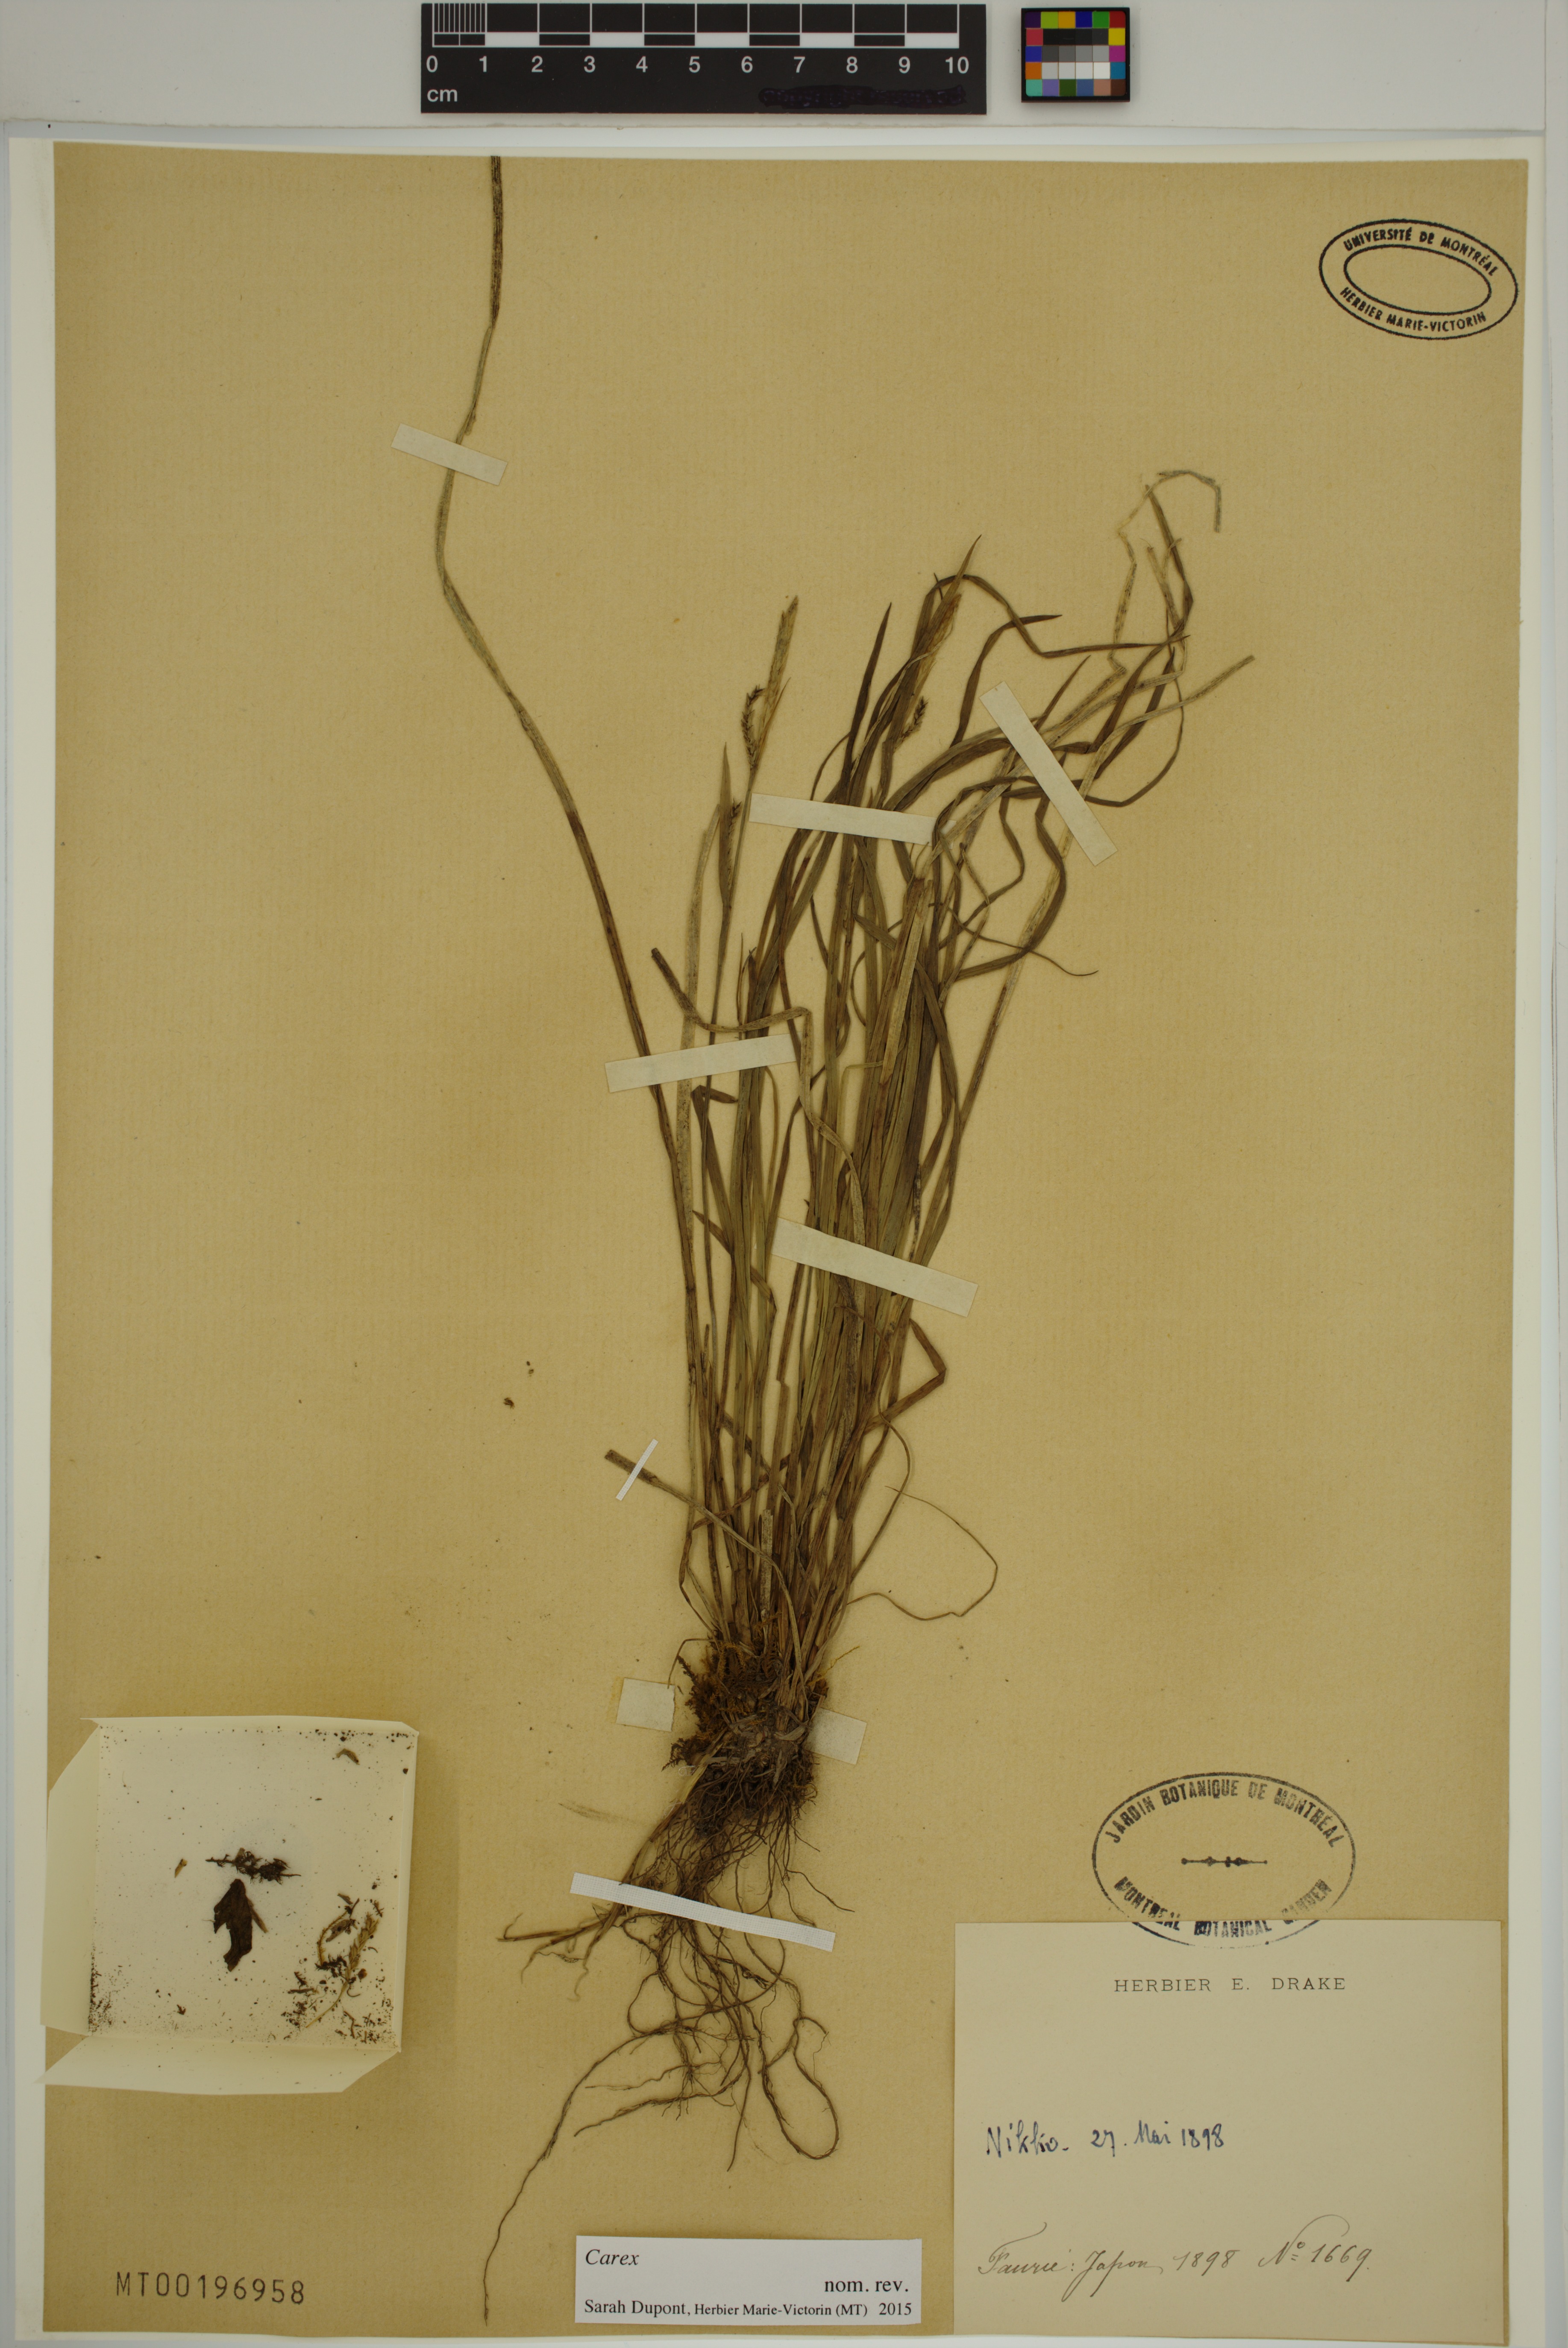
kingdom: Plantae
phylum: Tracheophyta
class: Liliopsida
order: Poales
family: Cyperaceae
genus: Carex
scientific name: Carex
